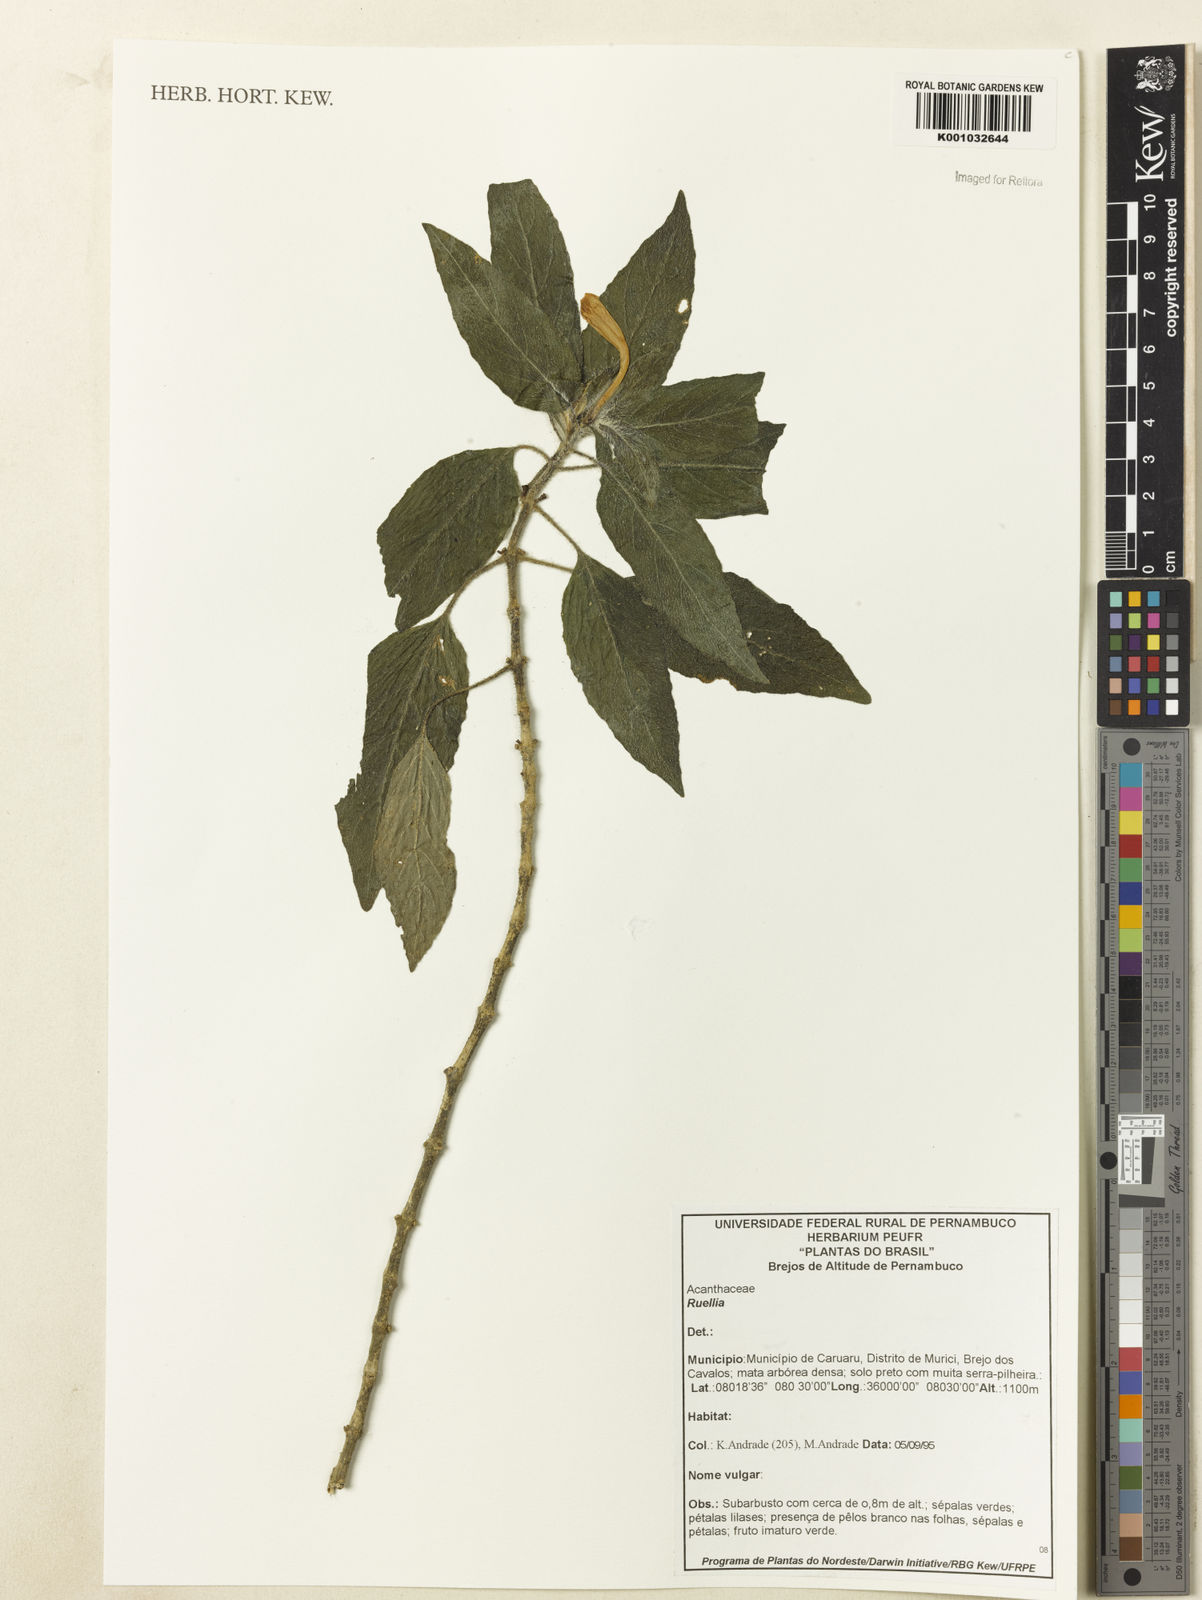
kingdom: Plantae
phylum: Tracheophyta
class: Magnoliopsida
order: Lamiales
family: Acanthaceae
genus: Ruellia
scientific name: Ruellia
